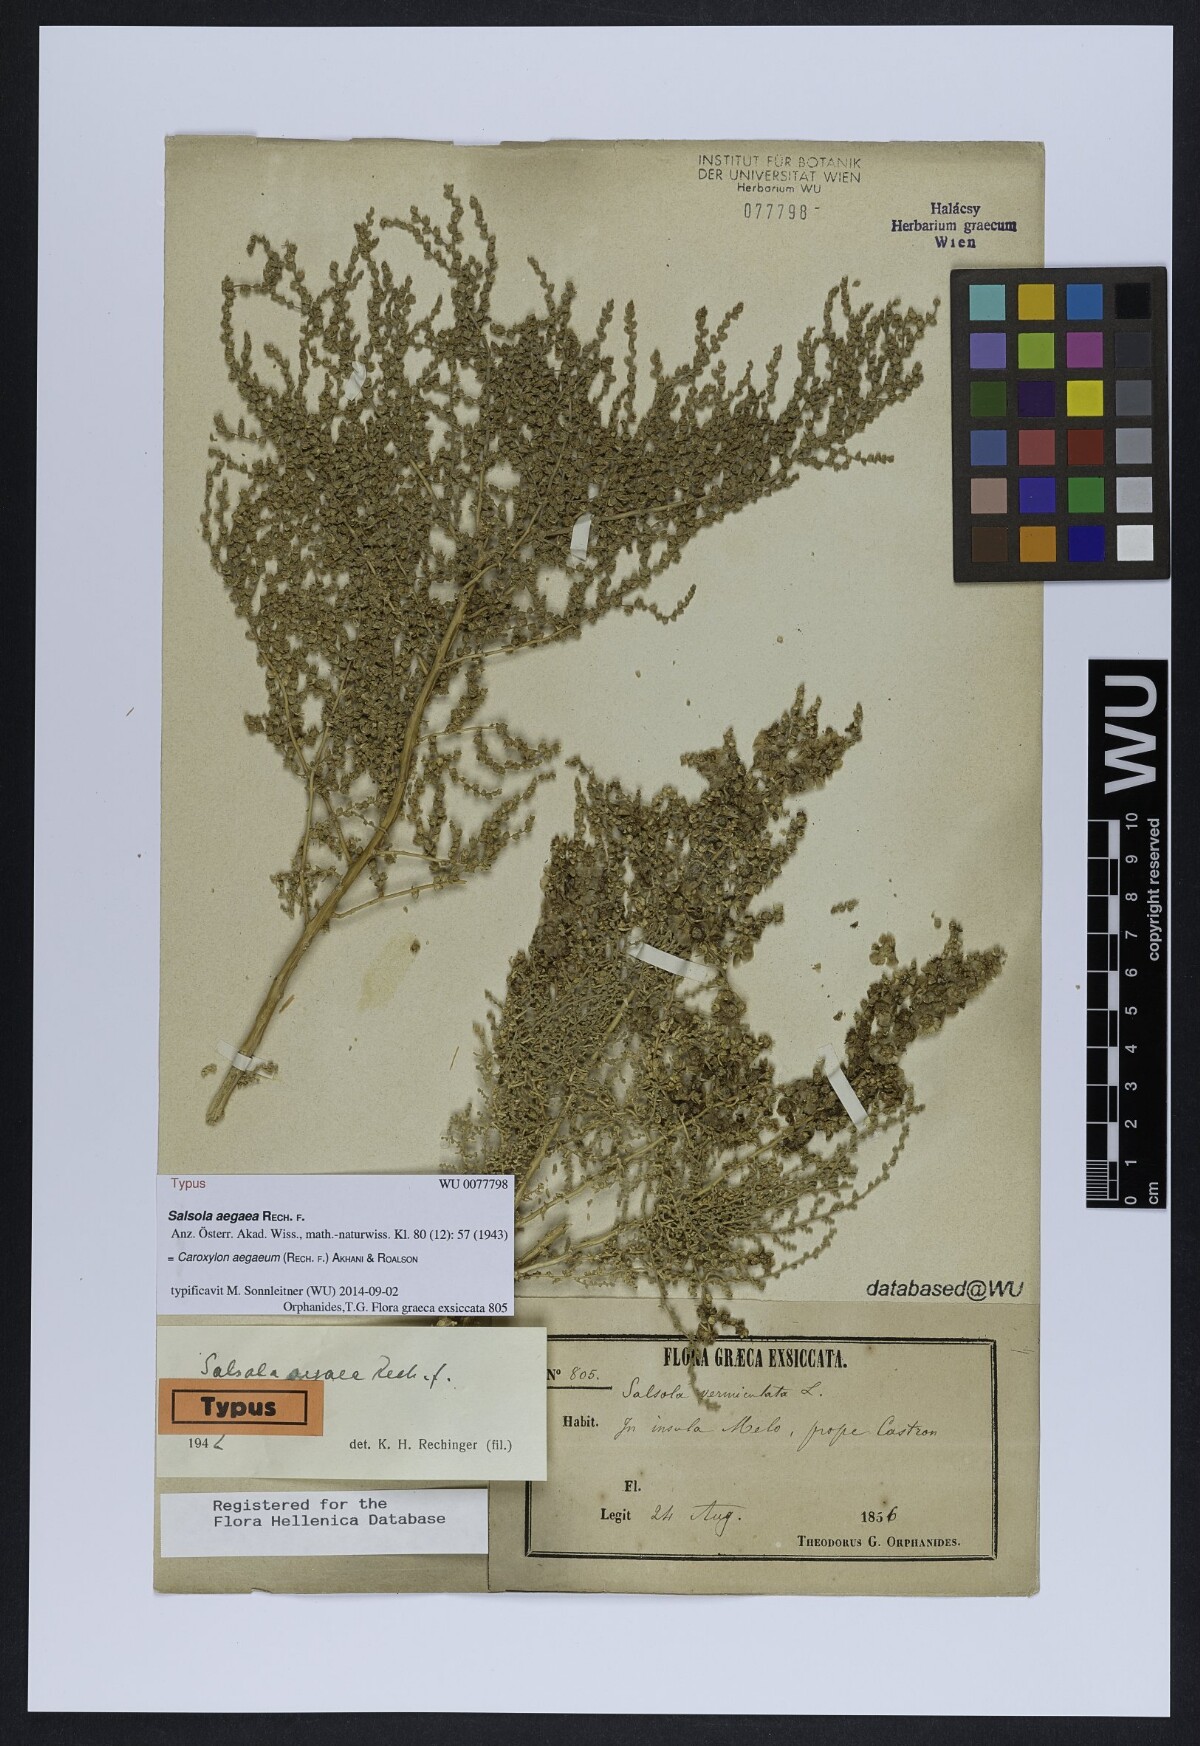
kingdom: Plantae
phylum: Tracheophyta
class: Magnoliopsida
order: Caryophyllales
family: Amaranthaceae
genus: Nitrosalsola
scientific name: Nitrosalsola aegaea
